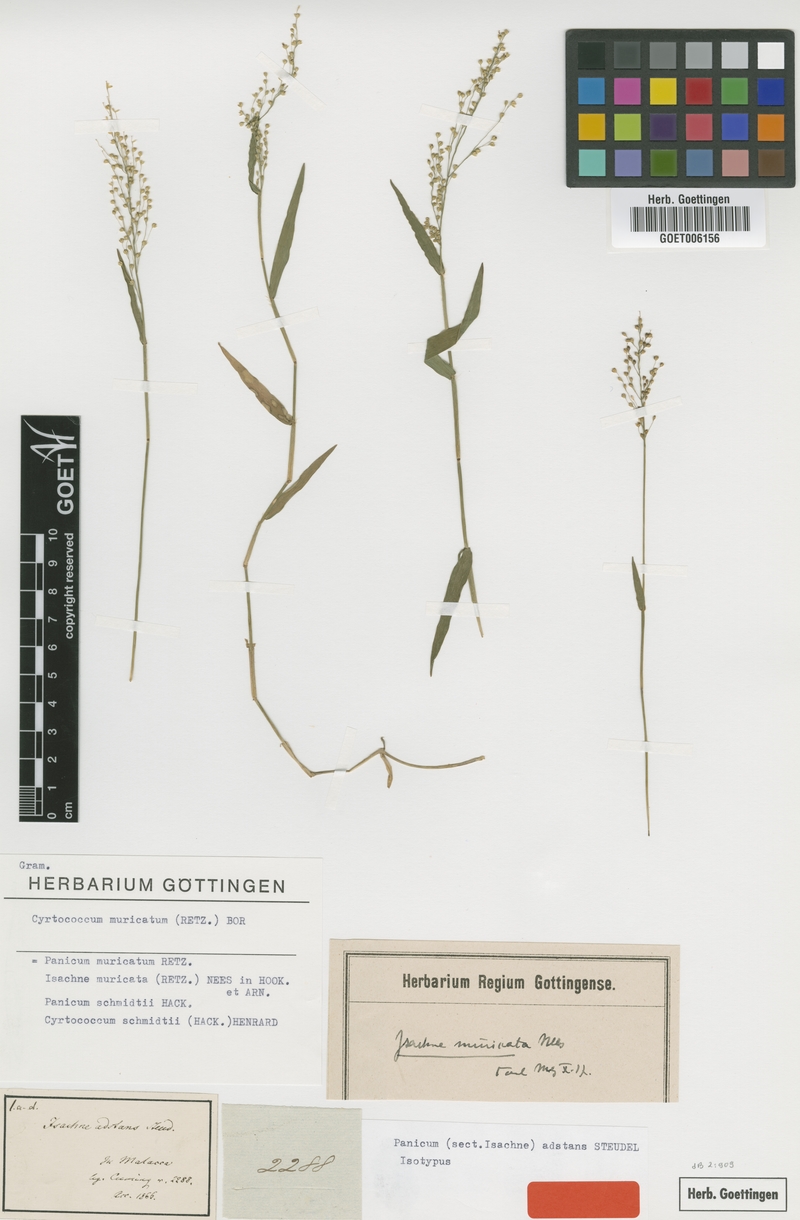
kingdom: Plantae
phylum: Tracheophyta
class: Liliopsida
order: Poales
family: Poaceae
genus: Cyrtococcum
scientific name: Cyrtococcum patens
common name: Broad-leaved bowgrass
